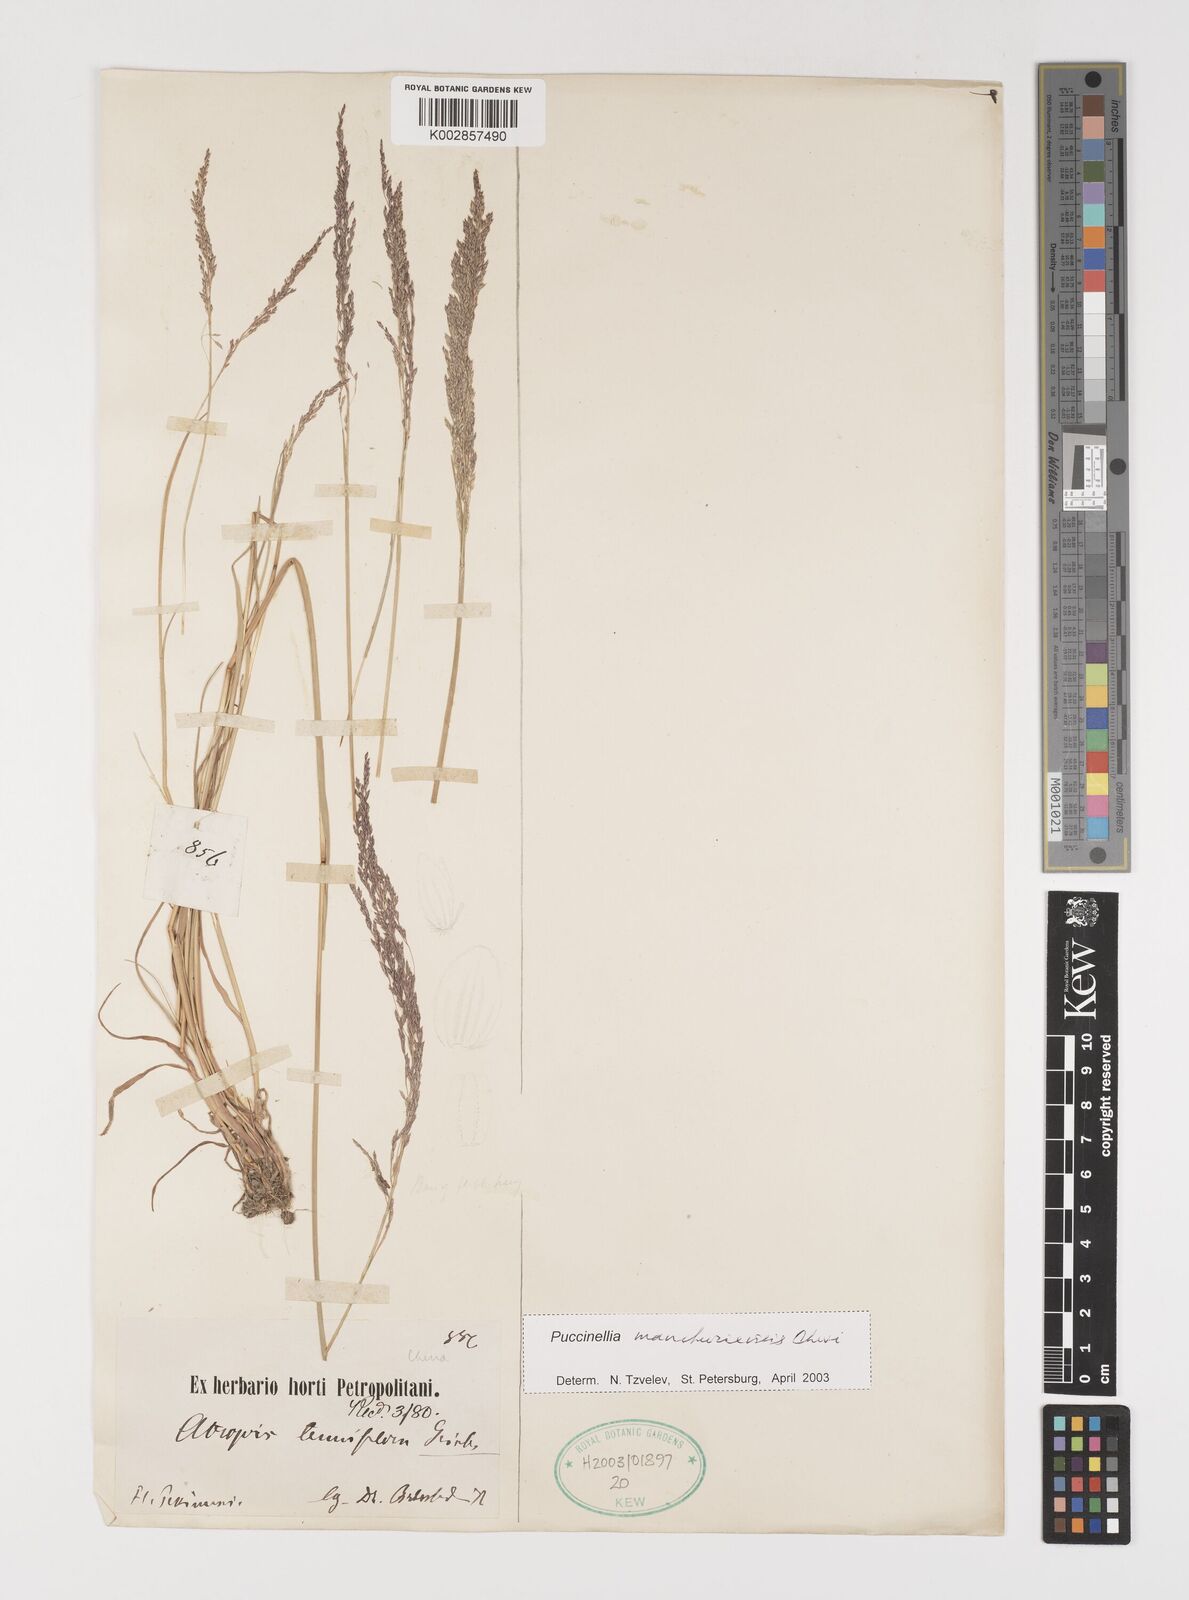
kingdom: Plantae
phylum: Tracheophyta
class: Liliopsida
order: Poales
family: Poaceae
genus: Puccinellia
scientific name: Puccinellia manchuriensis
